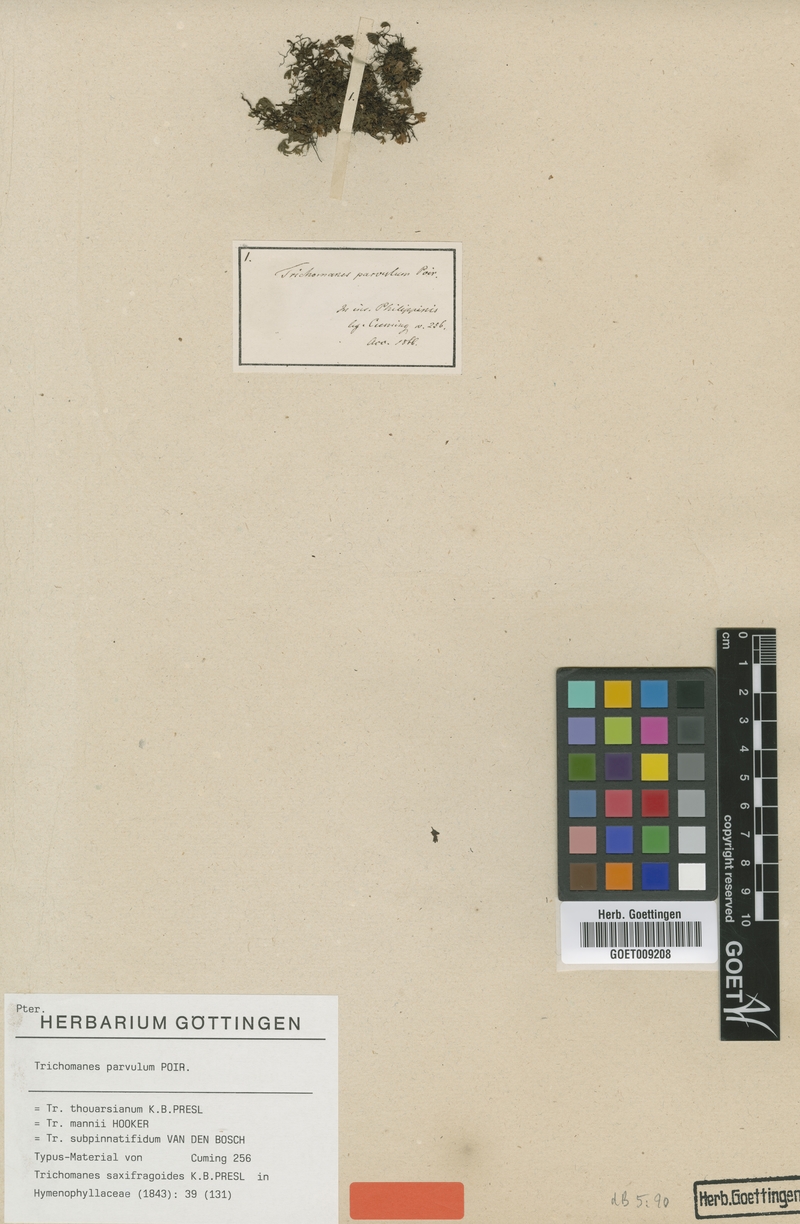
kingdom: Plantae
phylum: Tracheophyta
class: Polypodiopsida
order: Hymenophyllales
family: Hymenophyllaceae
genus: Crepidomanes
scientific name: Crepidomanes parvulum
